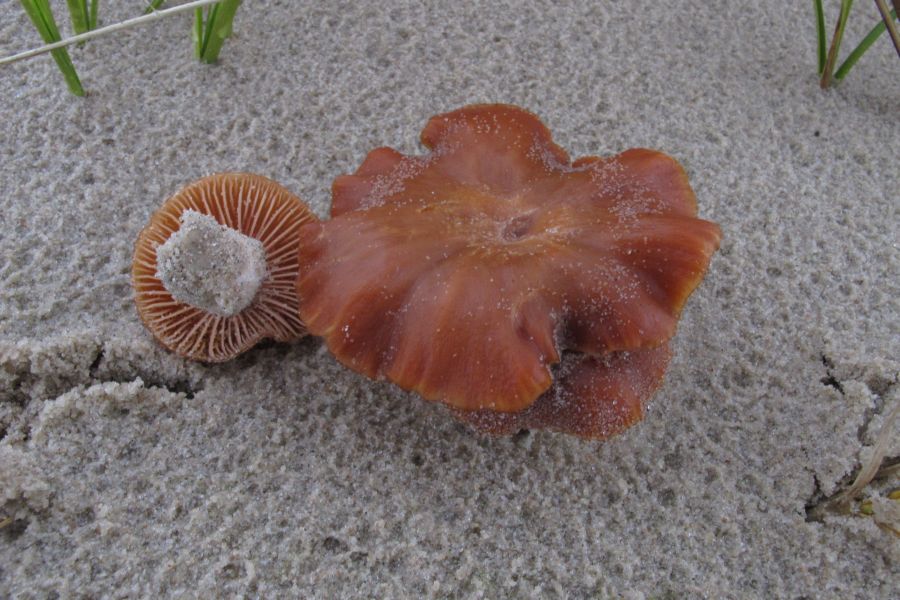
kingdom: Fungi
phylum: Basidiomycota
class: Agaricomycetes
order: Agaricales
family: Hydnangiaceae
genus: Laccaria
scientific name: Laccaria maritima
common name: klit-ametysthat
